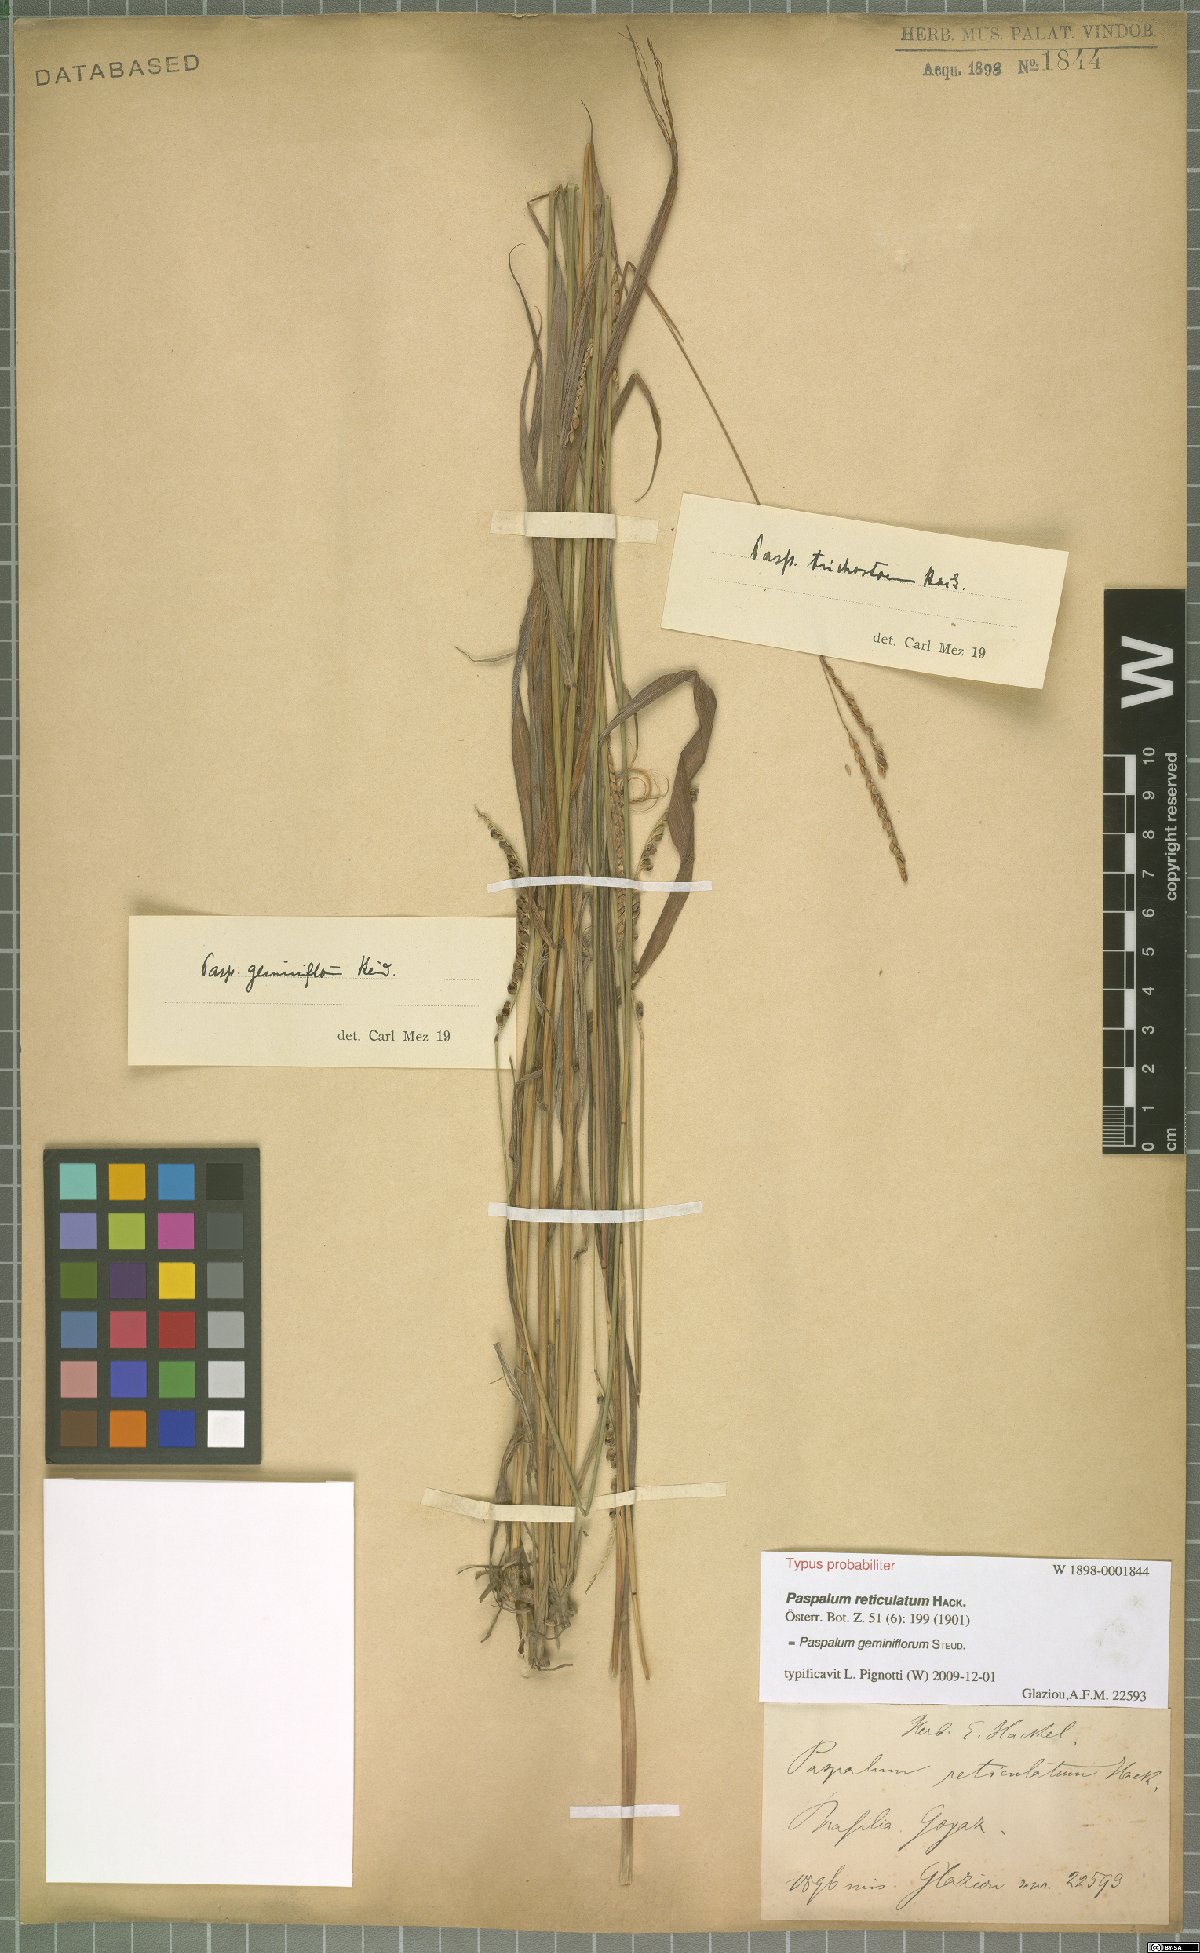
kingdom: Plantae
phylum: Tracheophyta
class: Liliopsida
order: Poales
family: Poaceae
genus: Paspalum
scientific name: Paspalum geminiflorum
